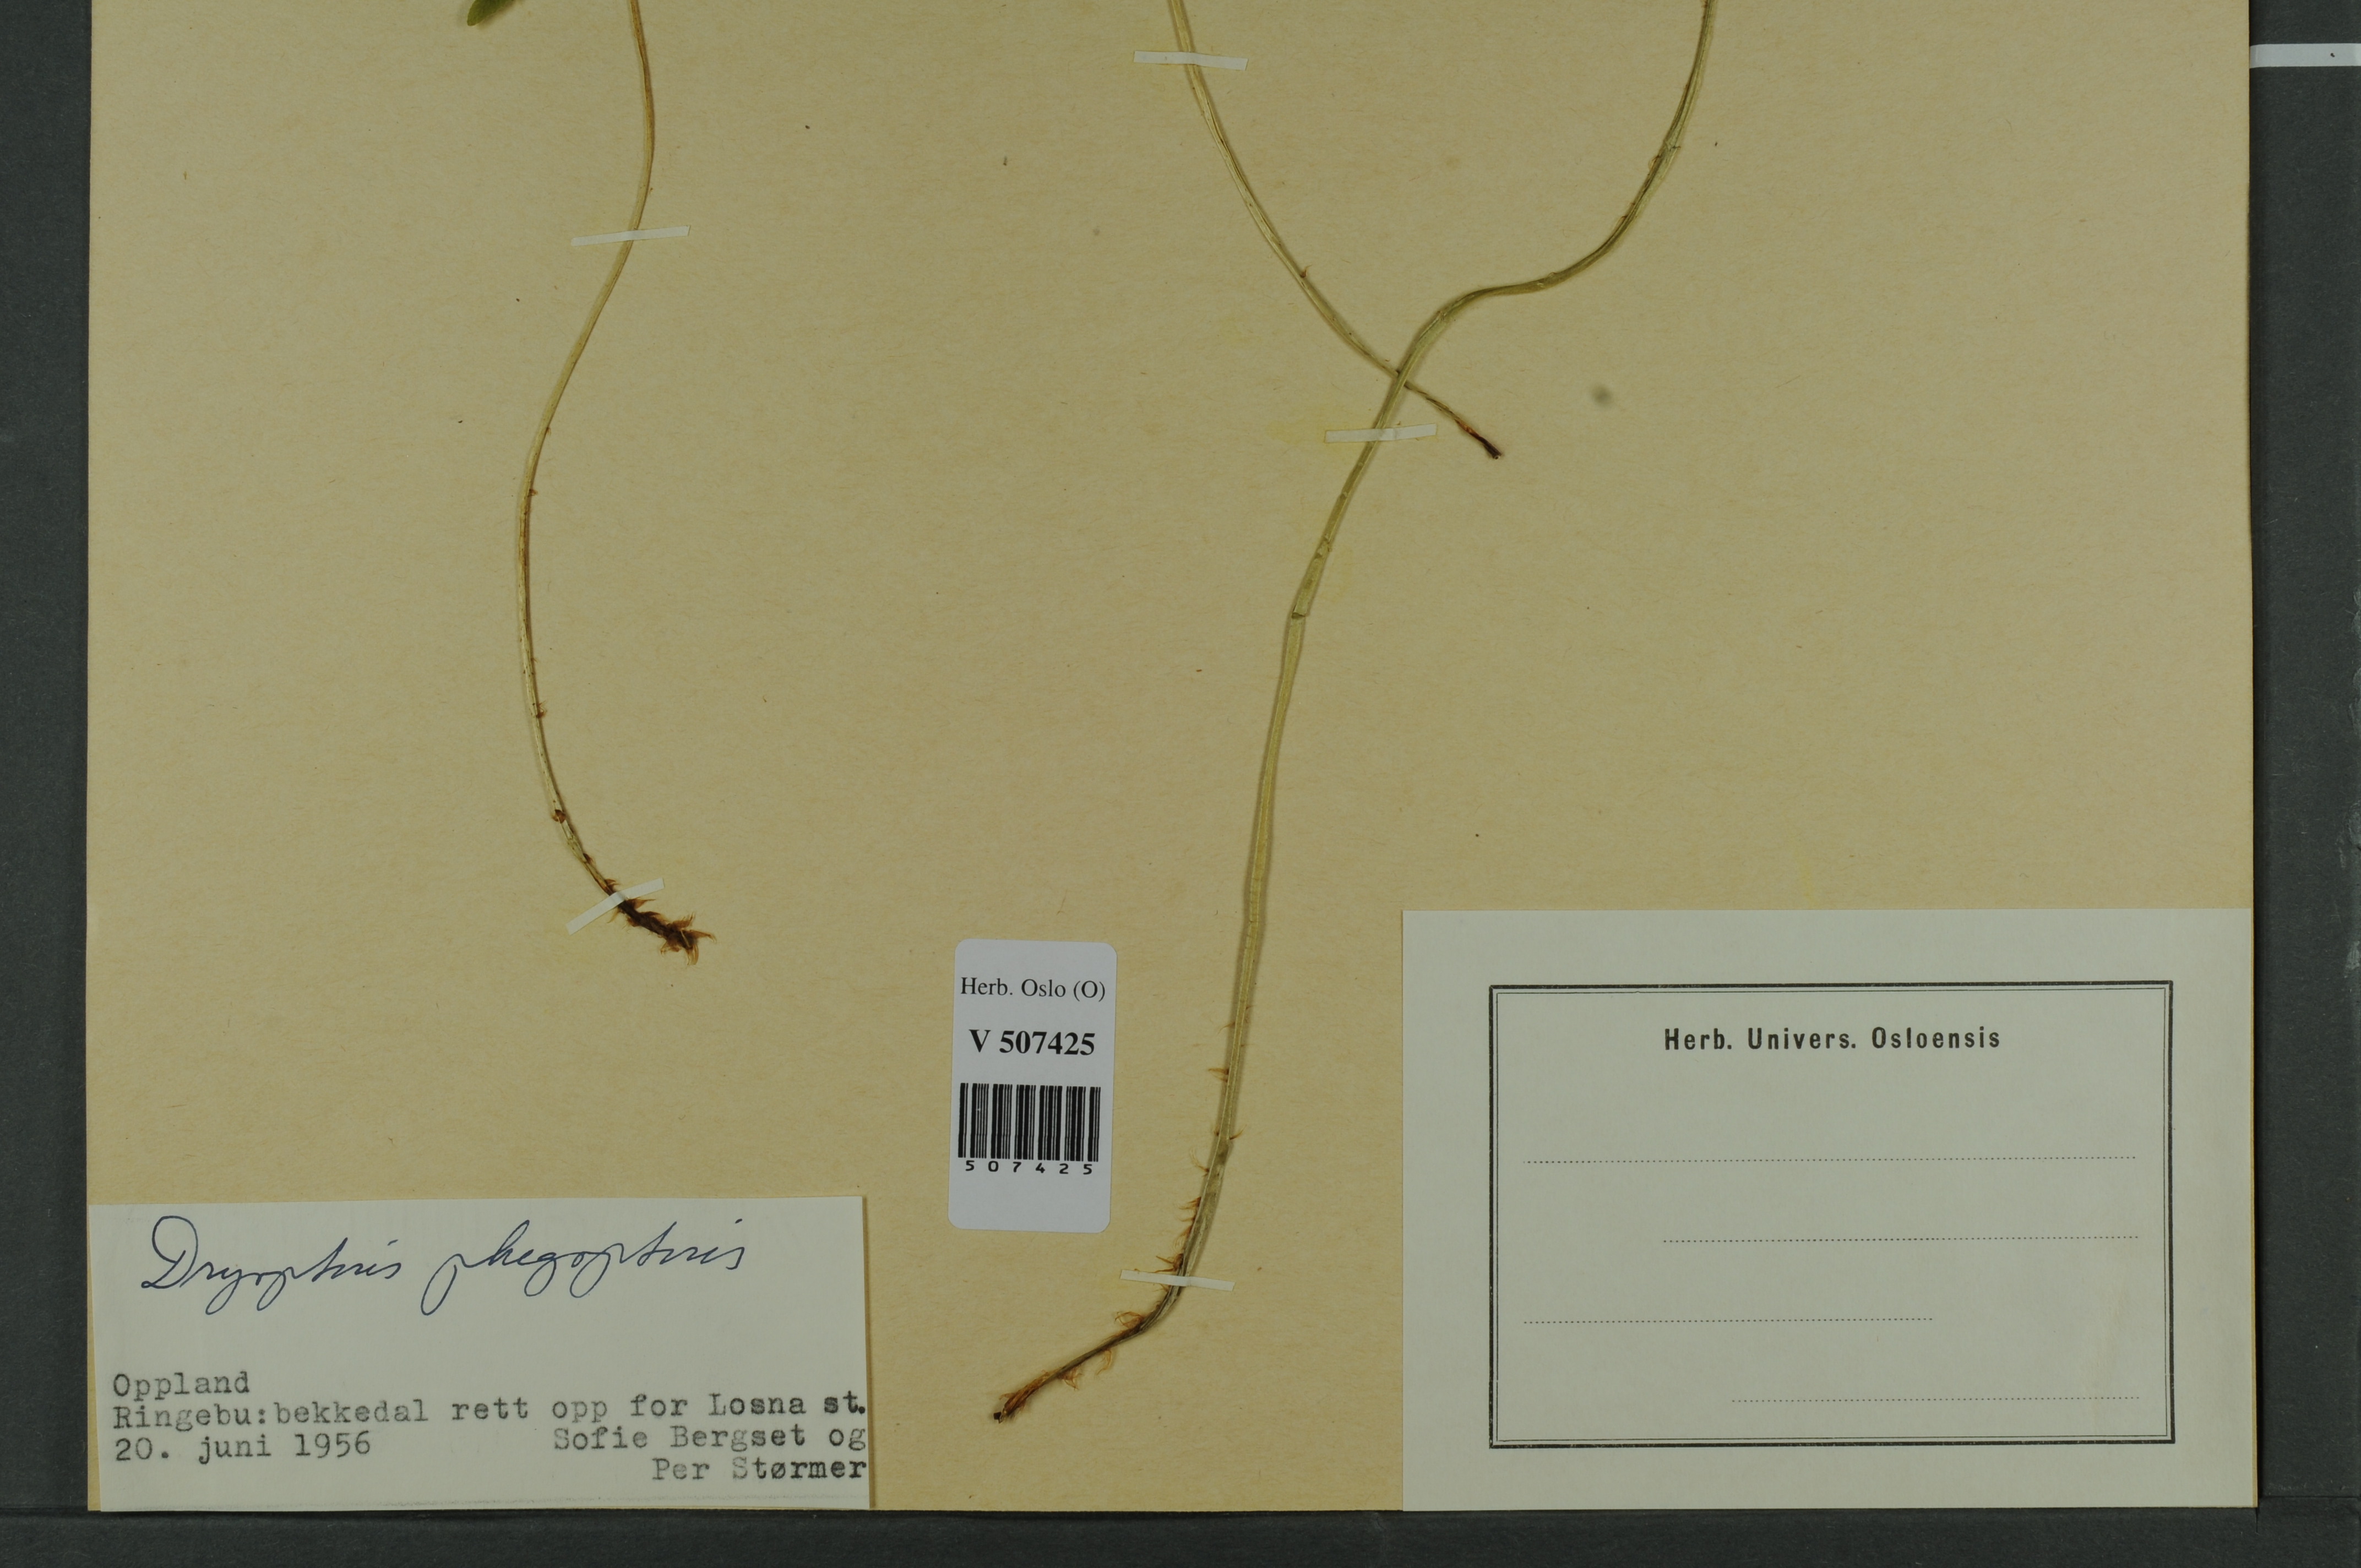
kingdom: Plantae
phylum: Tracheophyta
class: Polypodiopsida
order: Polypodiales
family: Thelypteridaceae
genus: Phegopteris
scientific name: Phegopteris connectilis
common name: Beech fern
